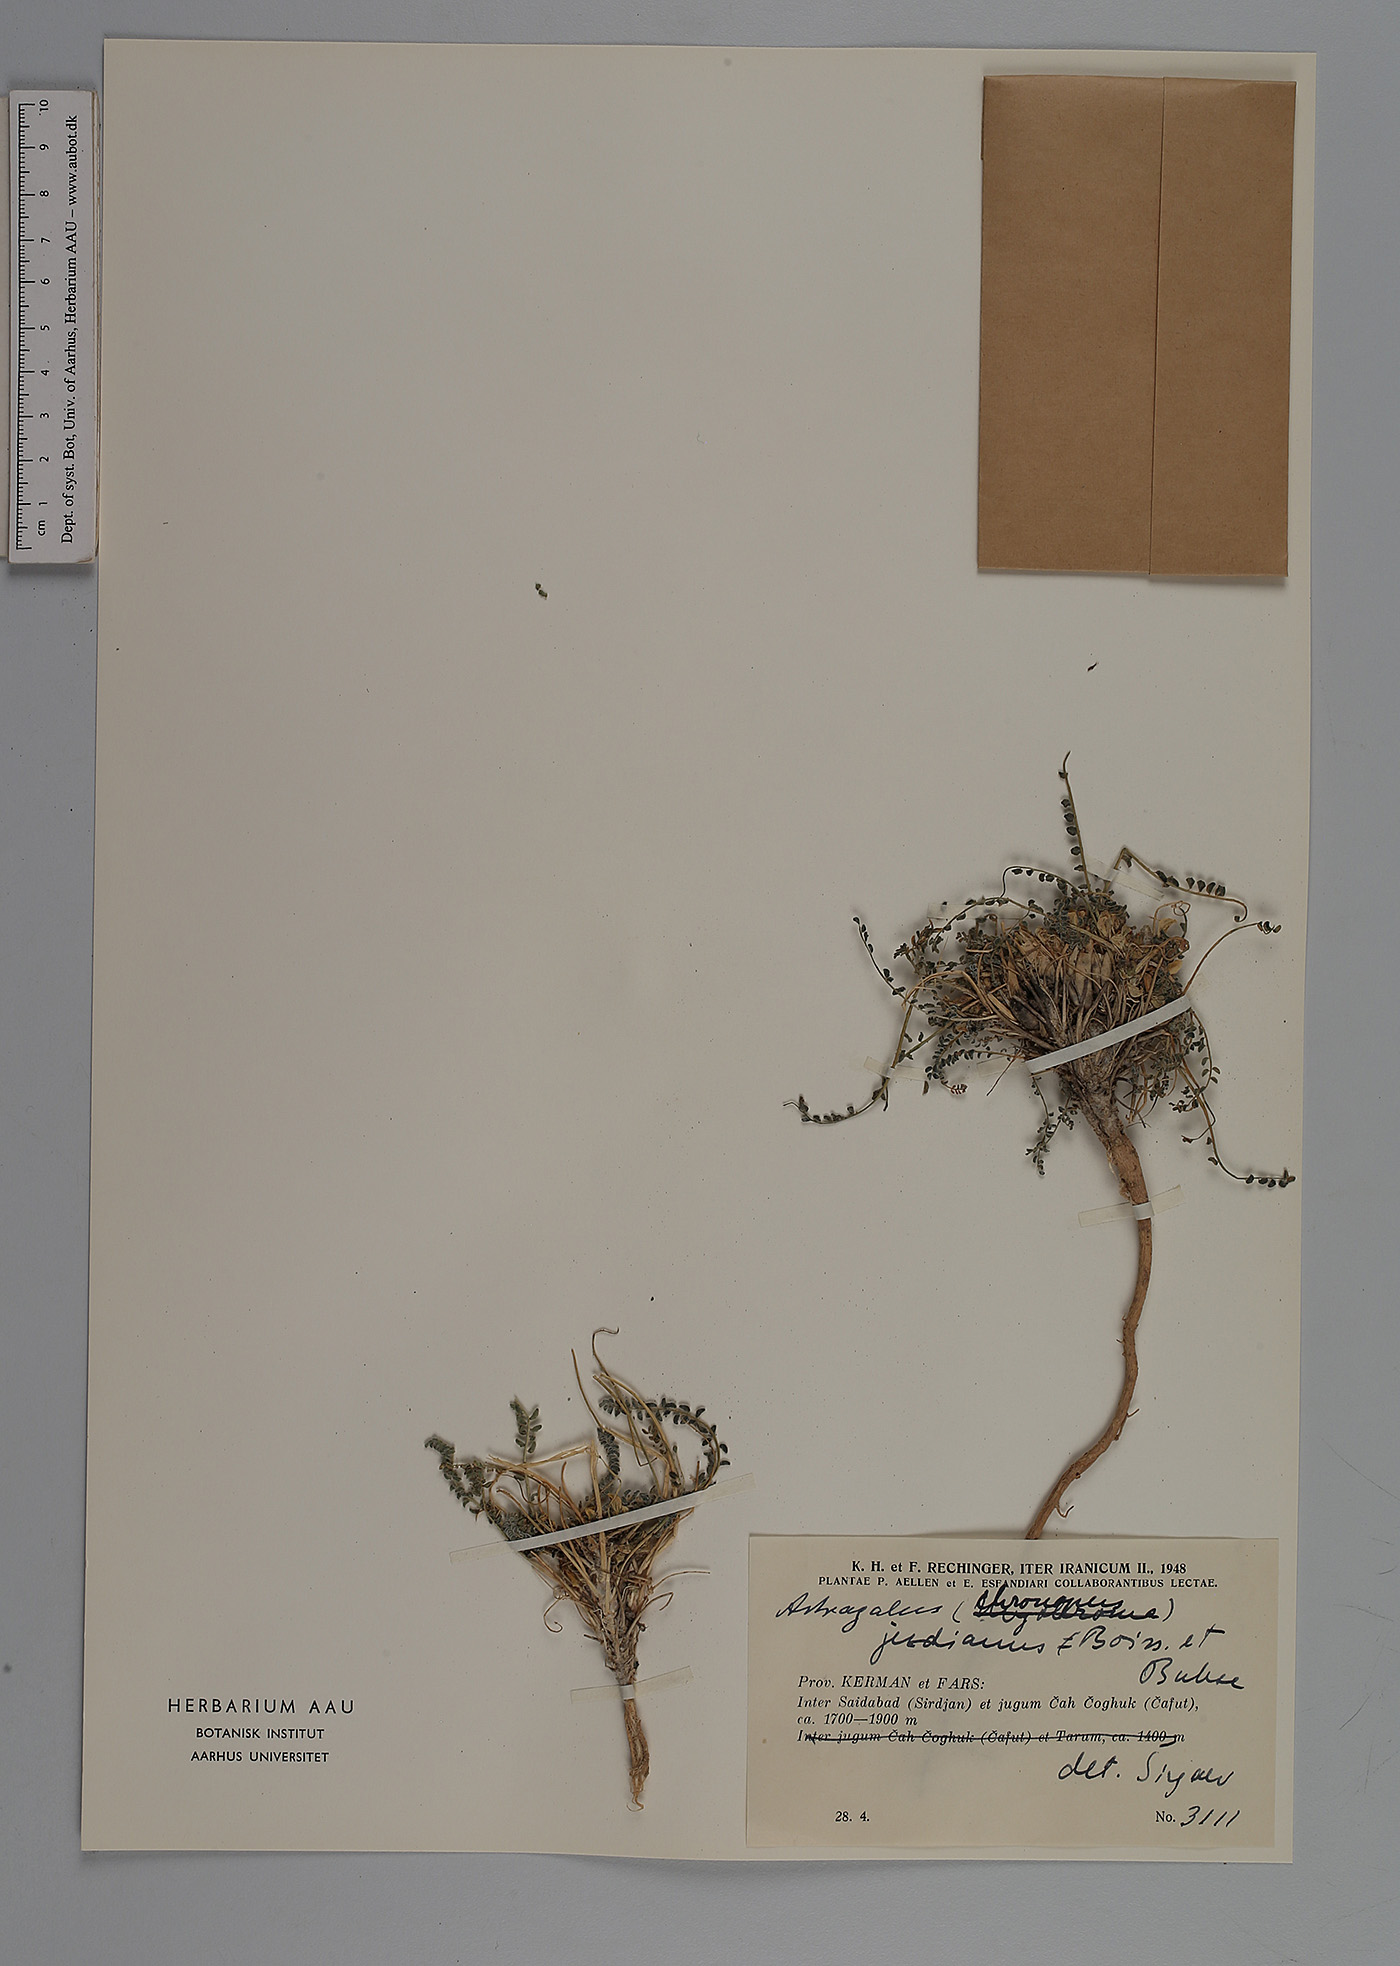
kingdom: Plantae
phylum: Tracheophyta
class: Magnoliopsida
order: Fabales
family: Fabaceae
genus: Astragalus
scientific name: Astragalus jesdianus
